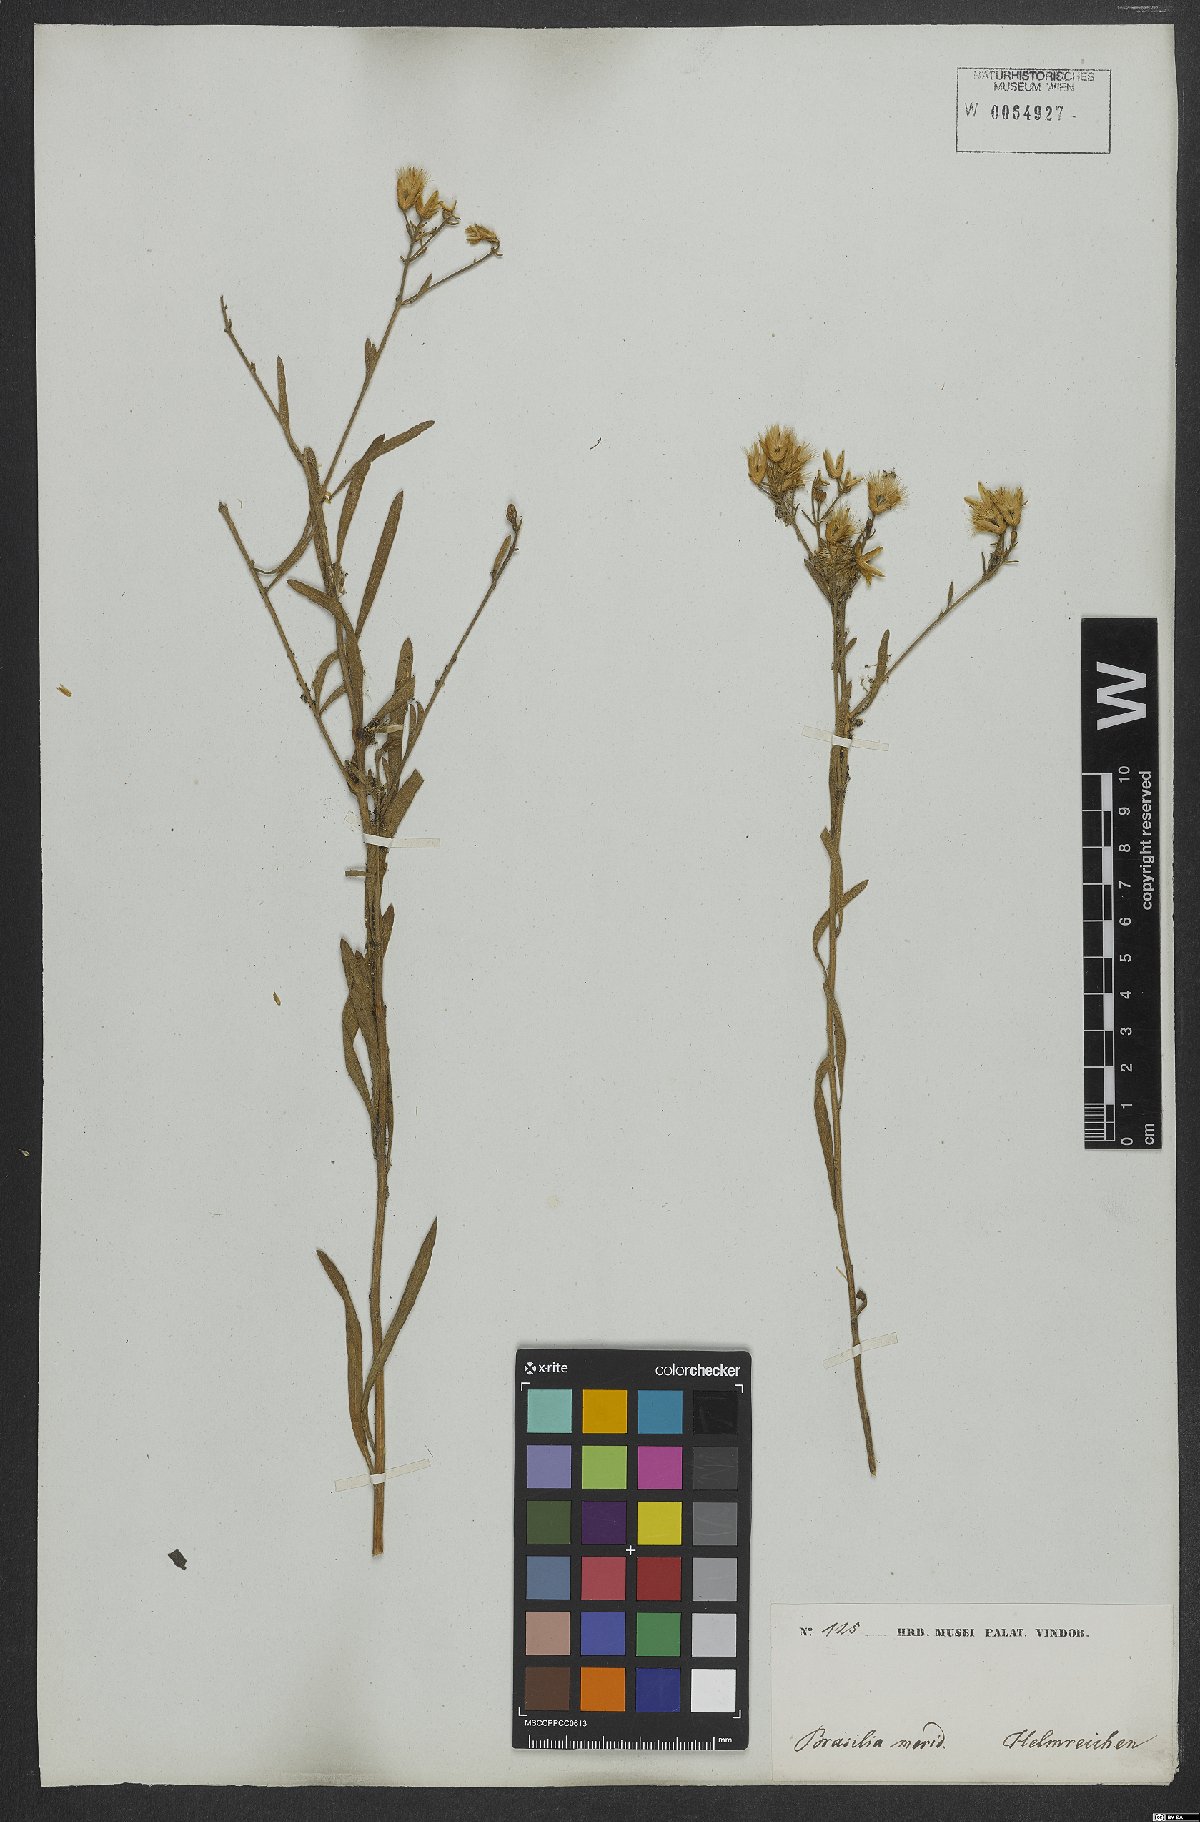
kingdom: Plantae
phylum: Tracheophyta
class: Magnoliopsida
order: Asterales
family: Asteraceae
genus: Echinocoryne
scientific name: Echinocoryne stricta
